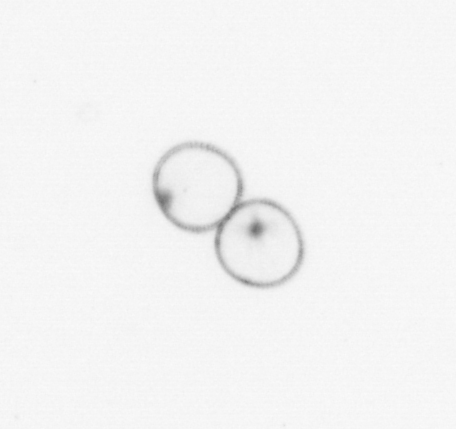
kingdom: Chromista
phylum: Myzozoa
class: Dinophyceae
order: Noctilucales
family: Noctilucaceae
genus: Noctiluca
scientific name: Noctiluca scintillans
